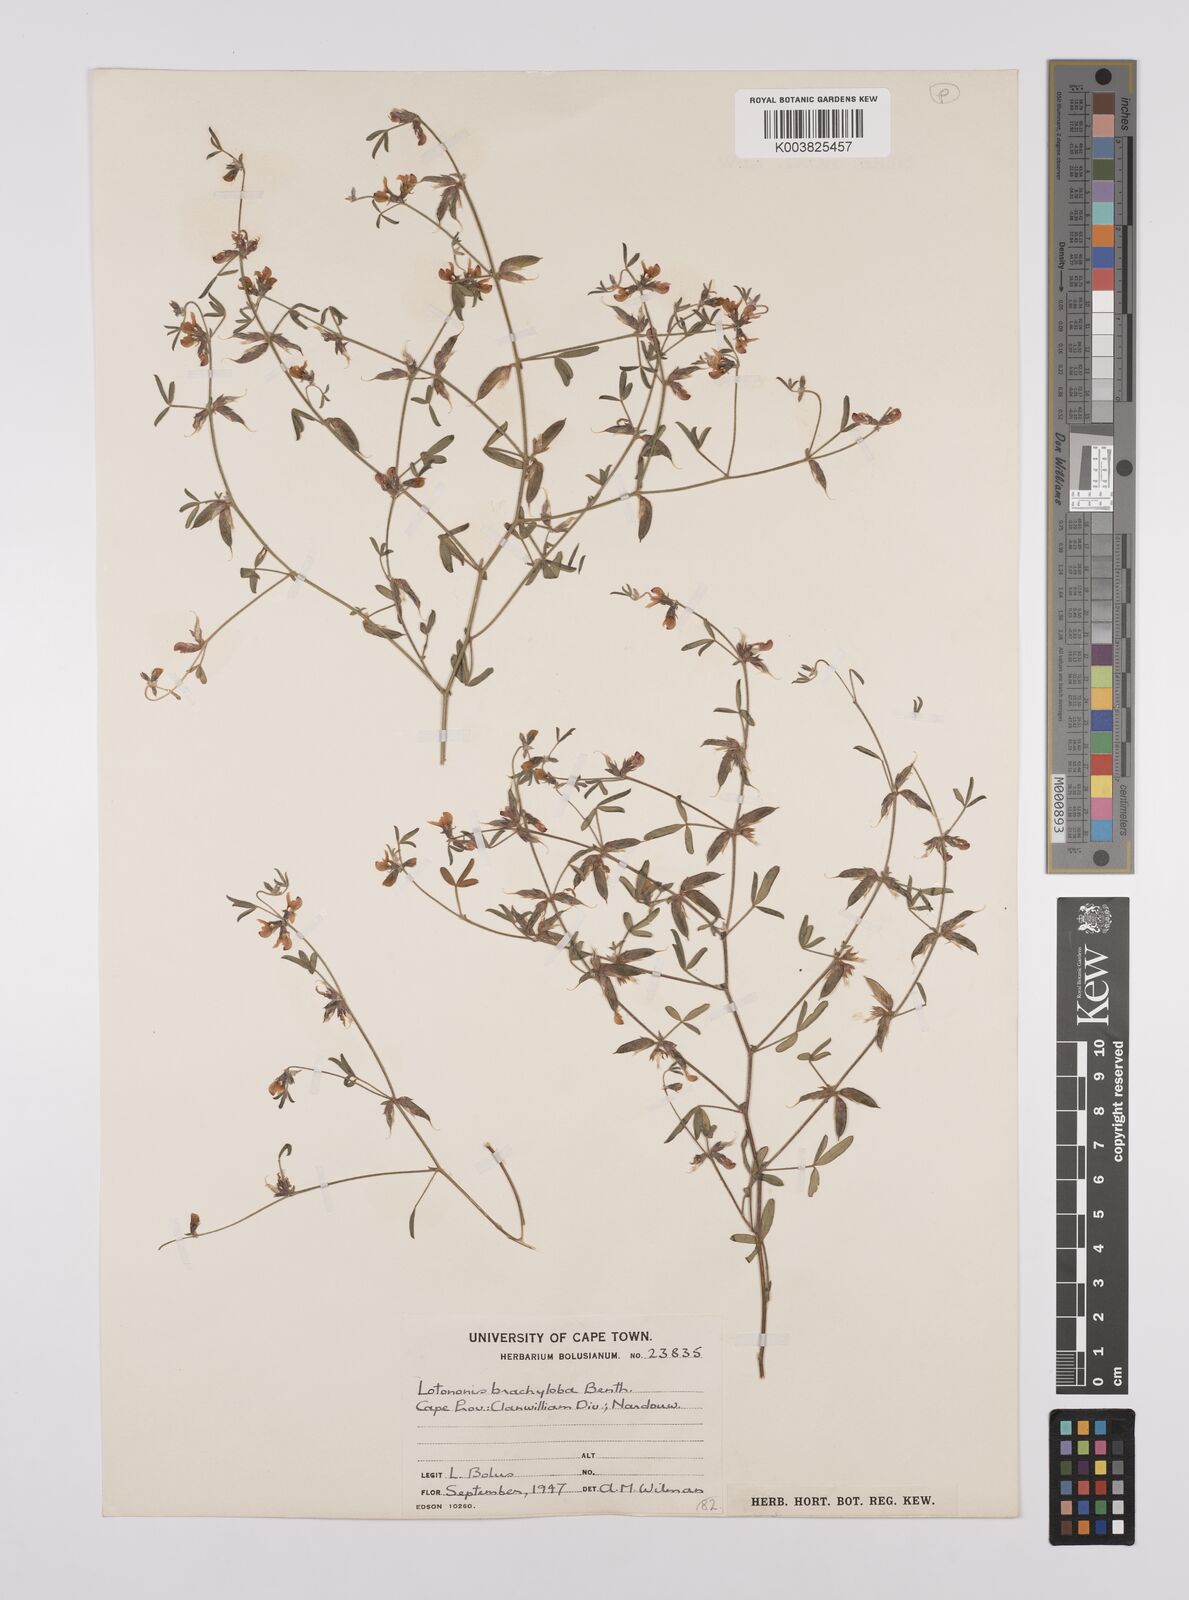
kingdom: Plantae
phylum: Tracheophyta
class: Magnoliopsida
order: Fabales
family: Fabaceae
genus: Lotononis
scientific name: Lotononis parviflora
